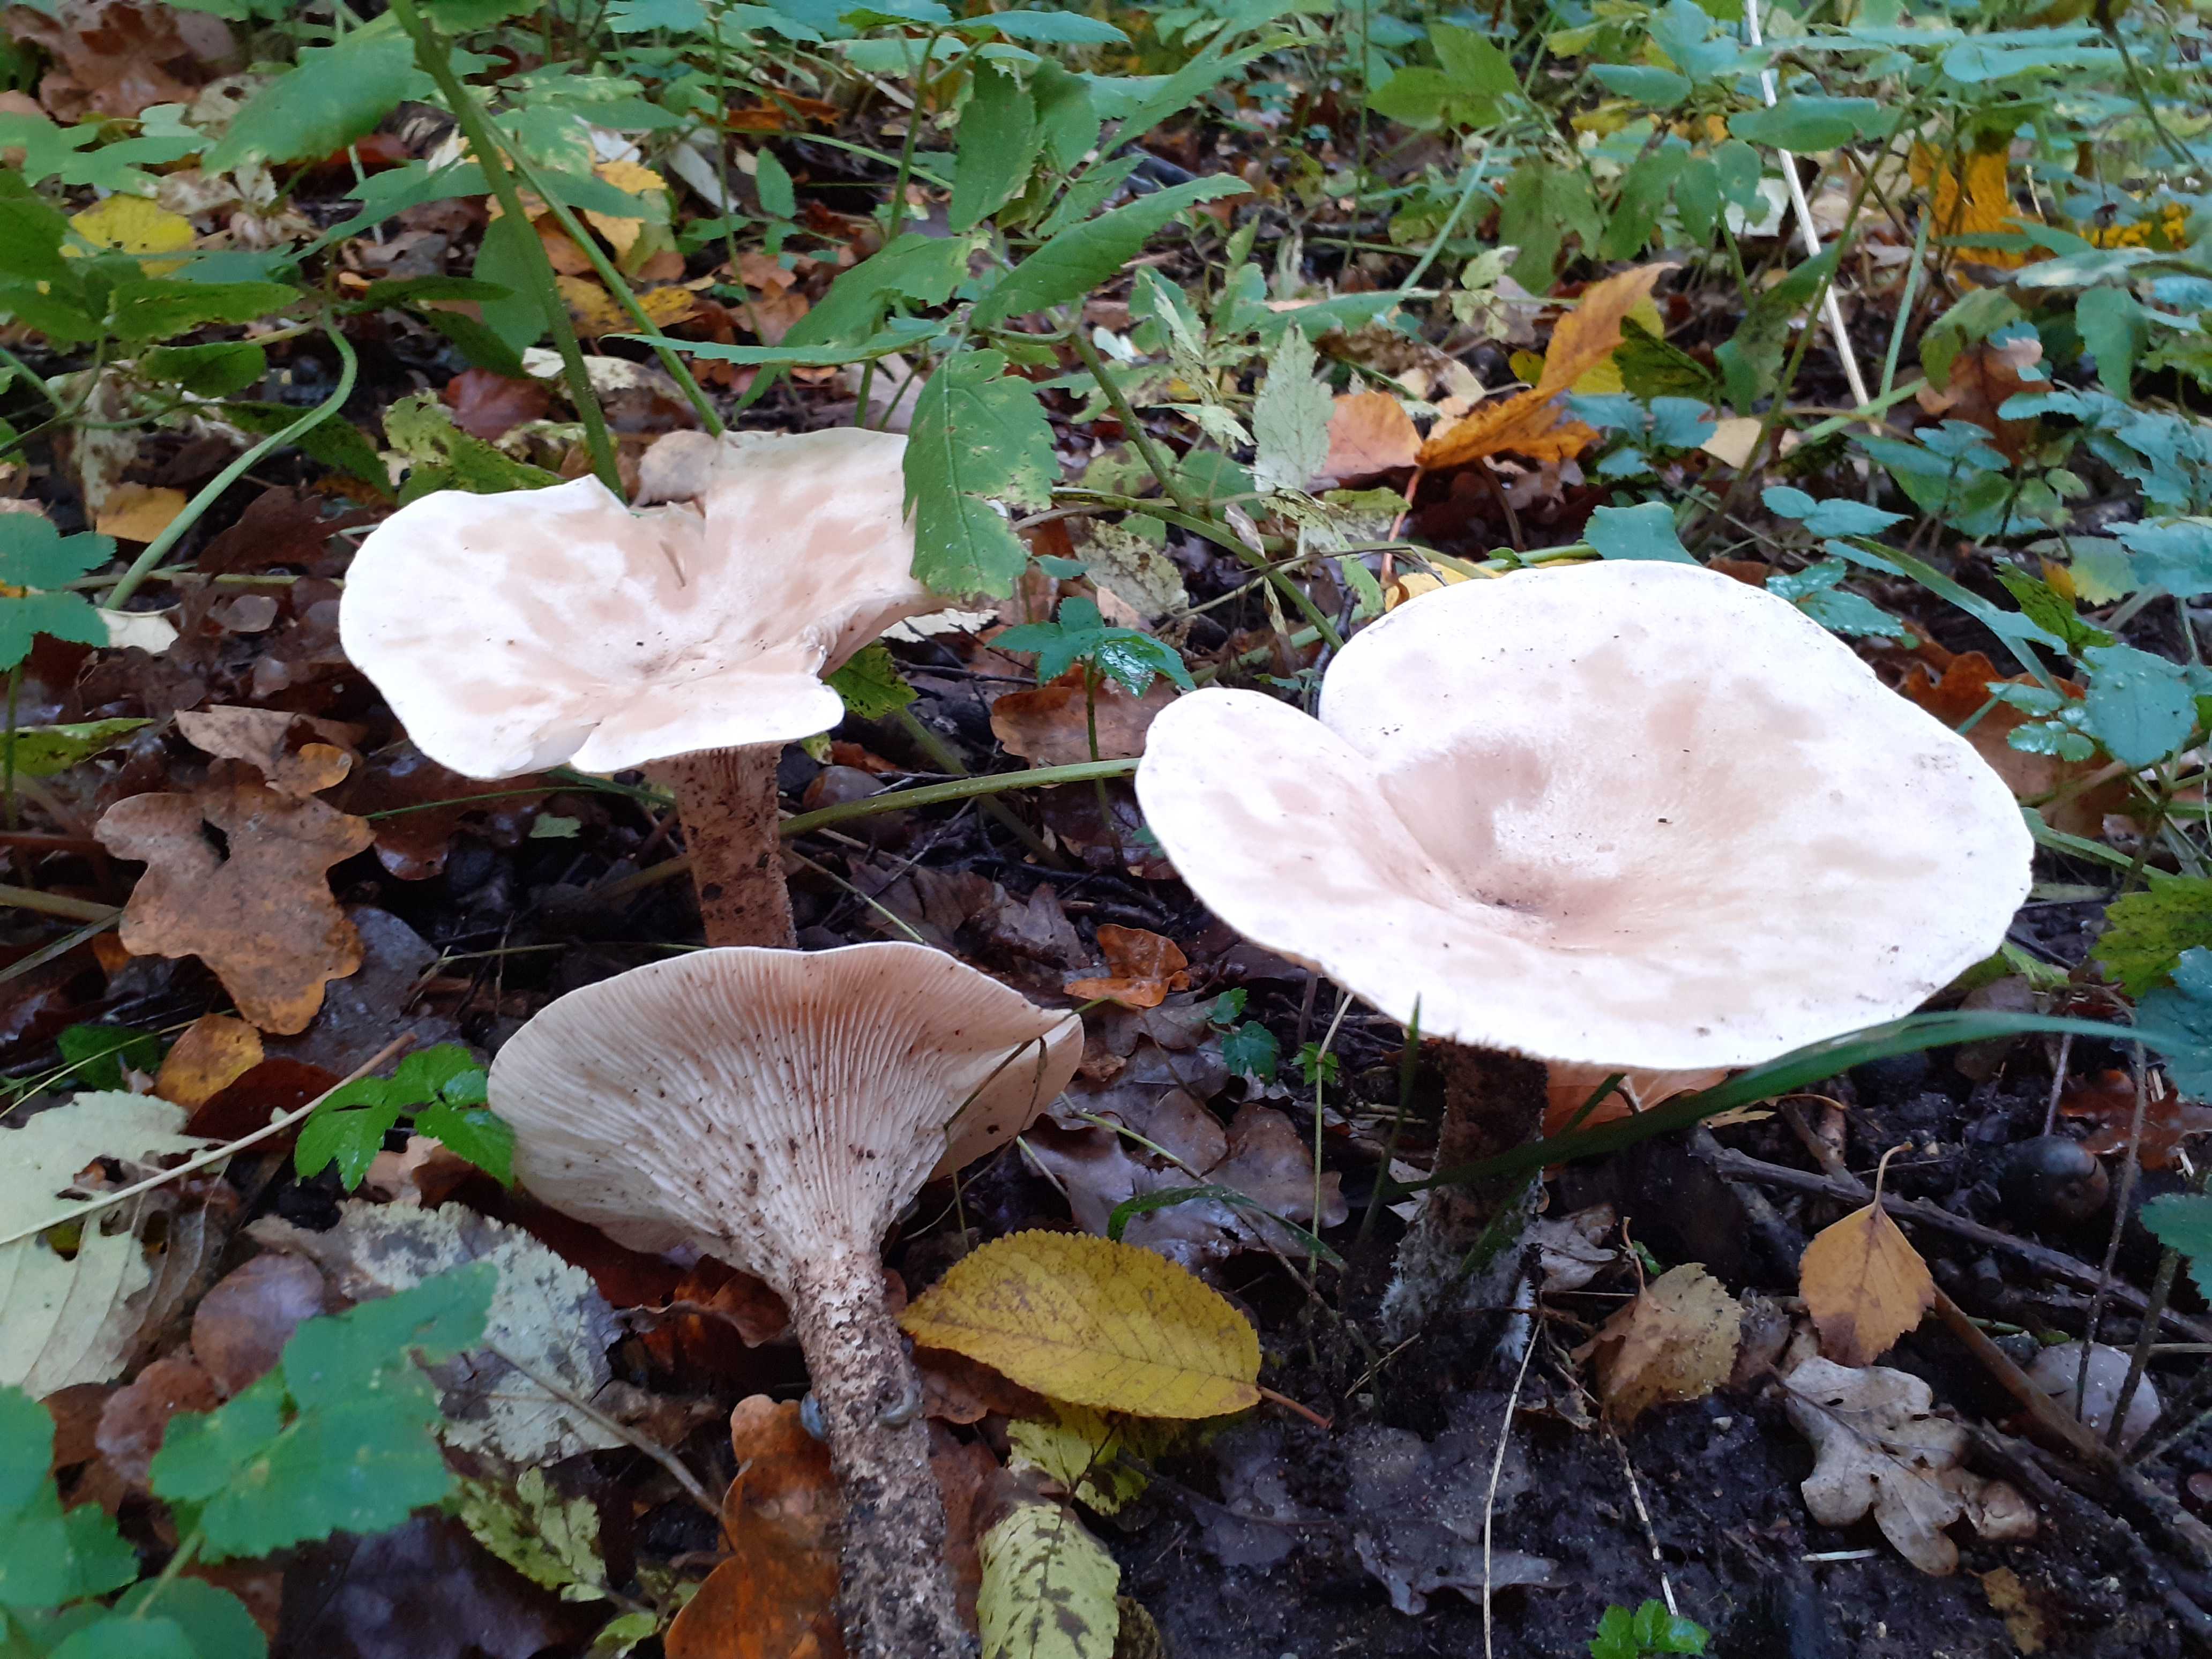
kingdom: Fungi
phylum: Basidiomycota
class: Agaricomycetes
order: Agaricales
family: Tricholomataceae
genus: Infundibulicybe
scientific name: Infundibulicybe geotropa
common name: stor tragthat
